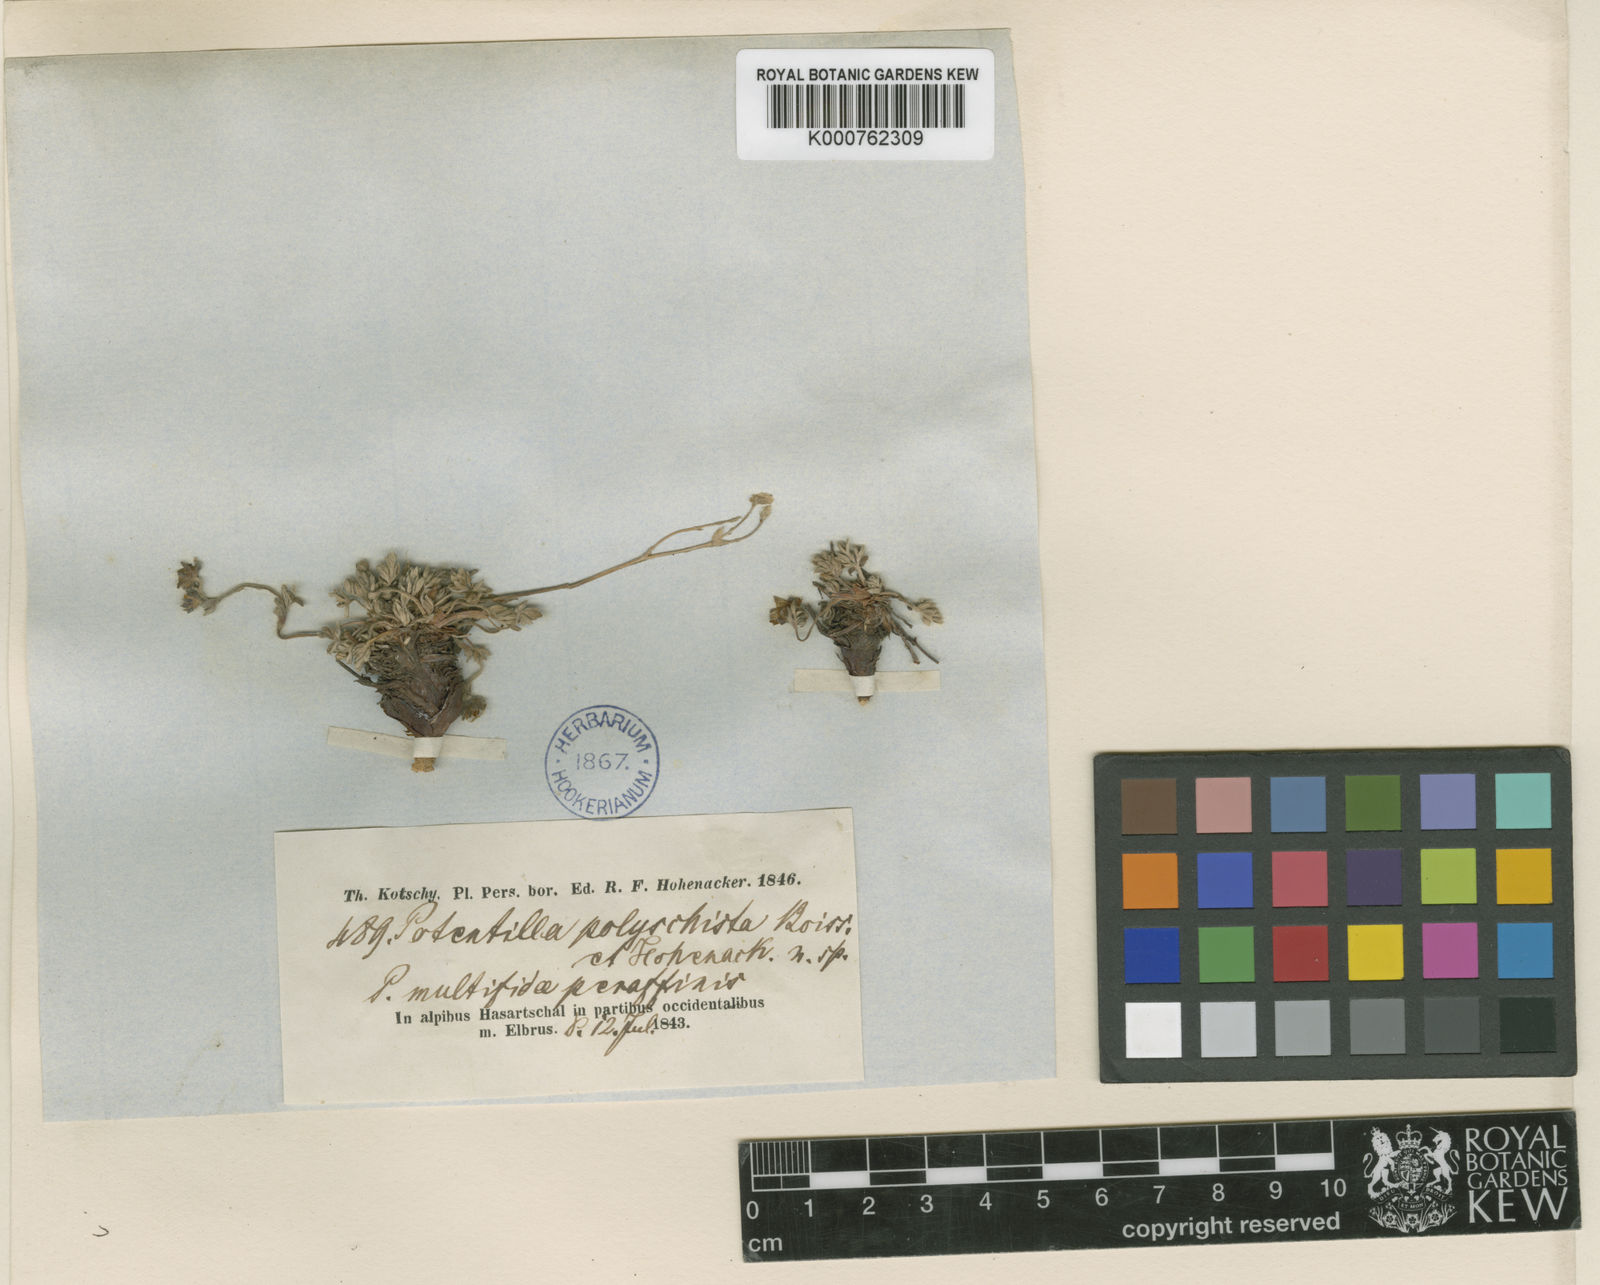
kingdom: Plantae
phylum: Tracheophyta
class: Magnoliopsida
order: Rosales
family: Rosaceae
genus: Potentilla
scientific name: Potentilla sericea
